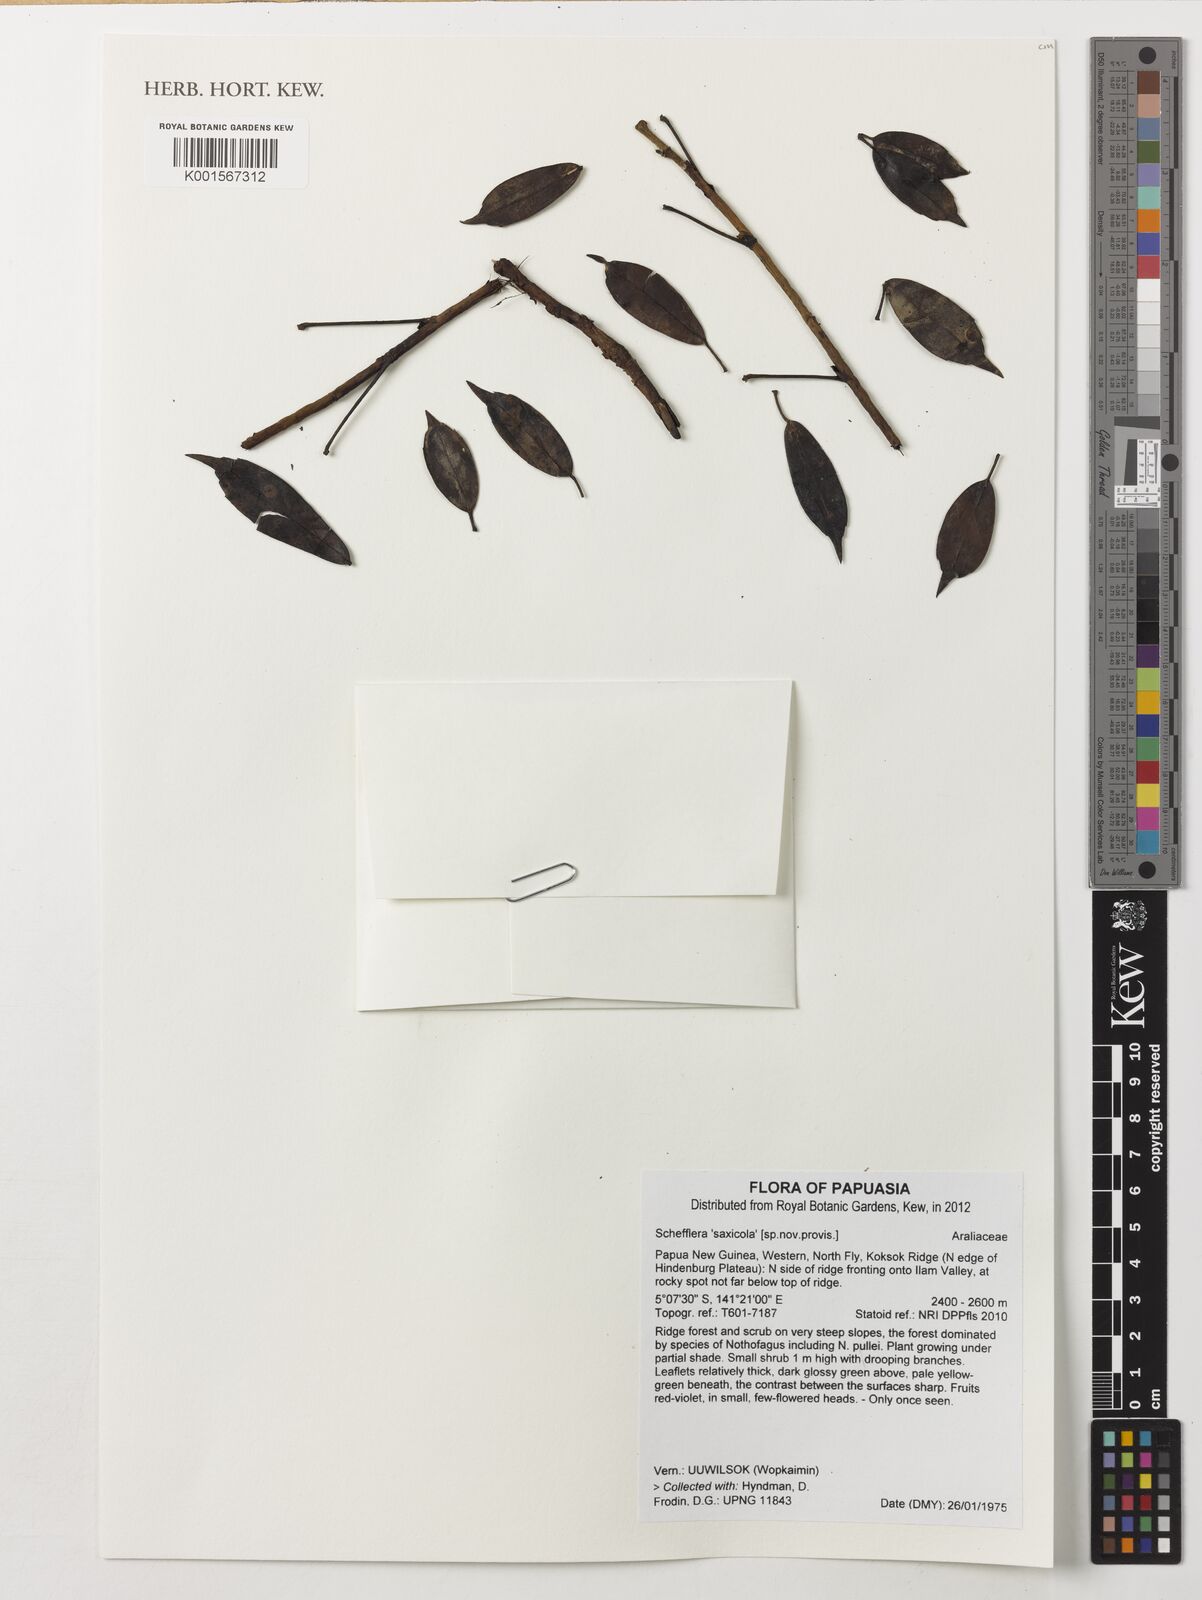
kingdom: Plantae
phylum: Tracheophyta
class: Magnoliopsida
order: Apiales
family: Araliaceae
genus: Schefflera
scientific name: Schefflera
